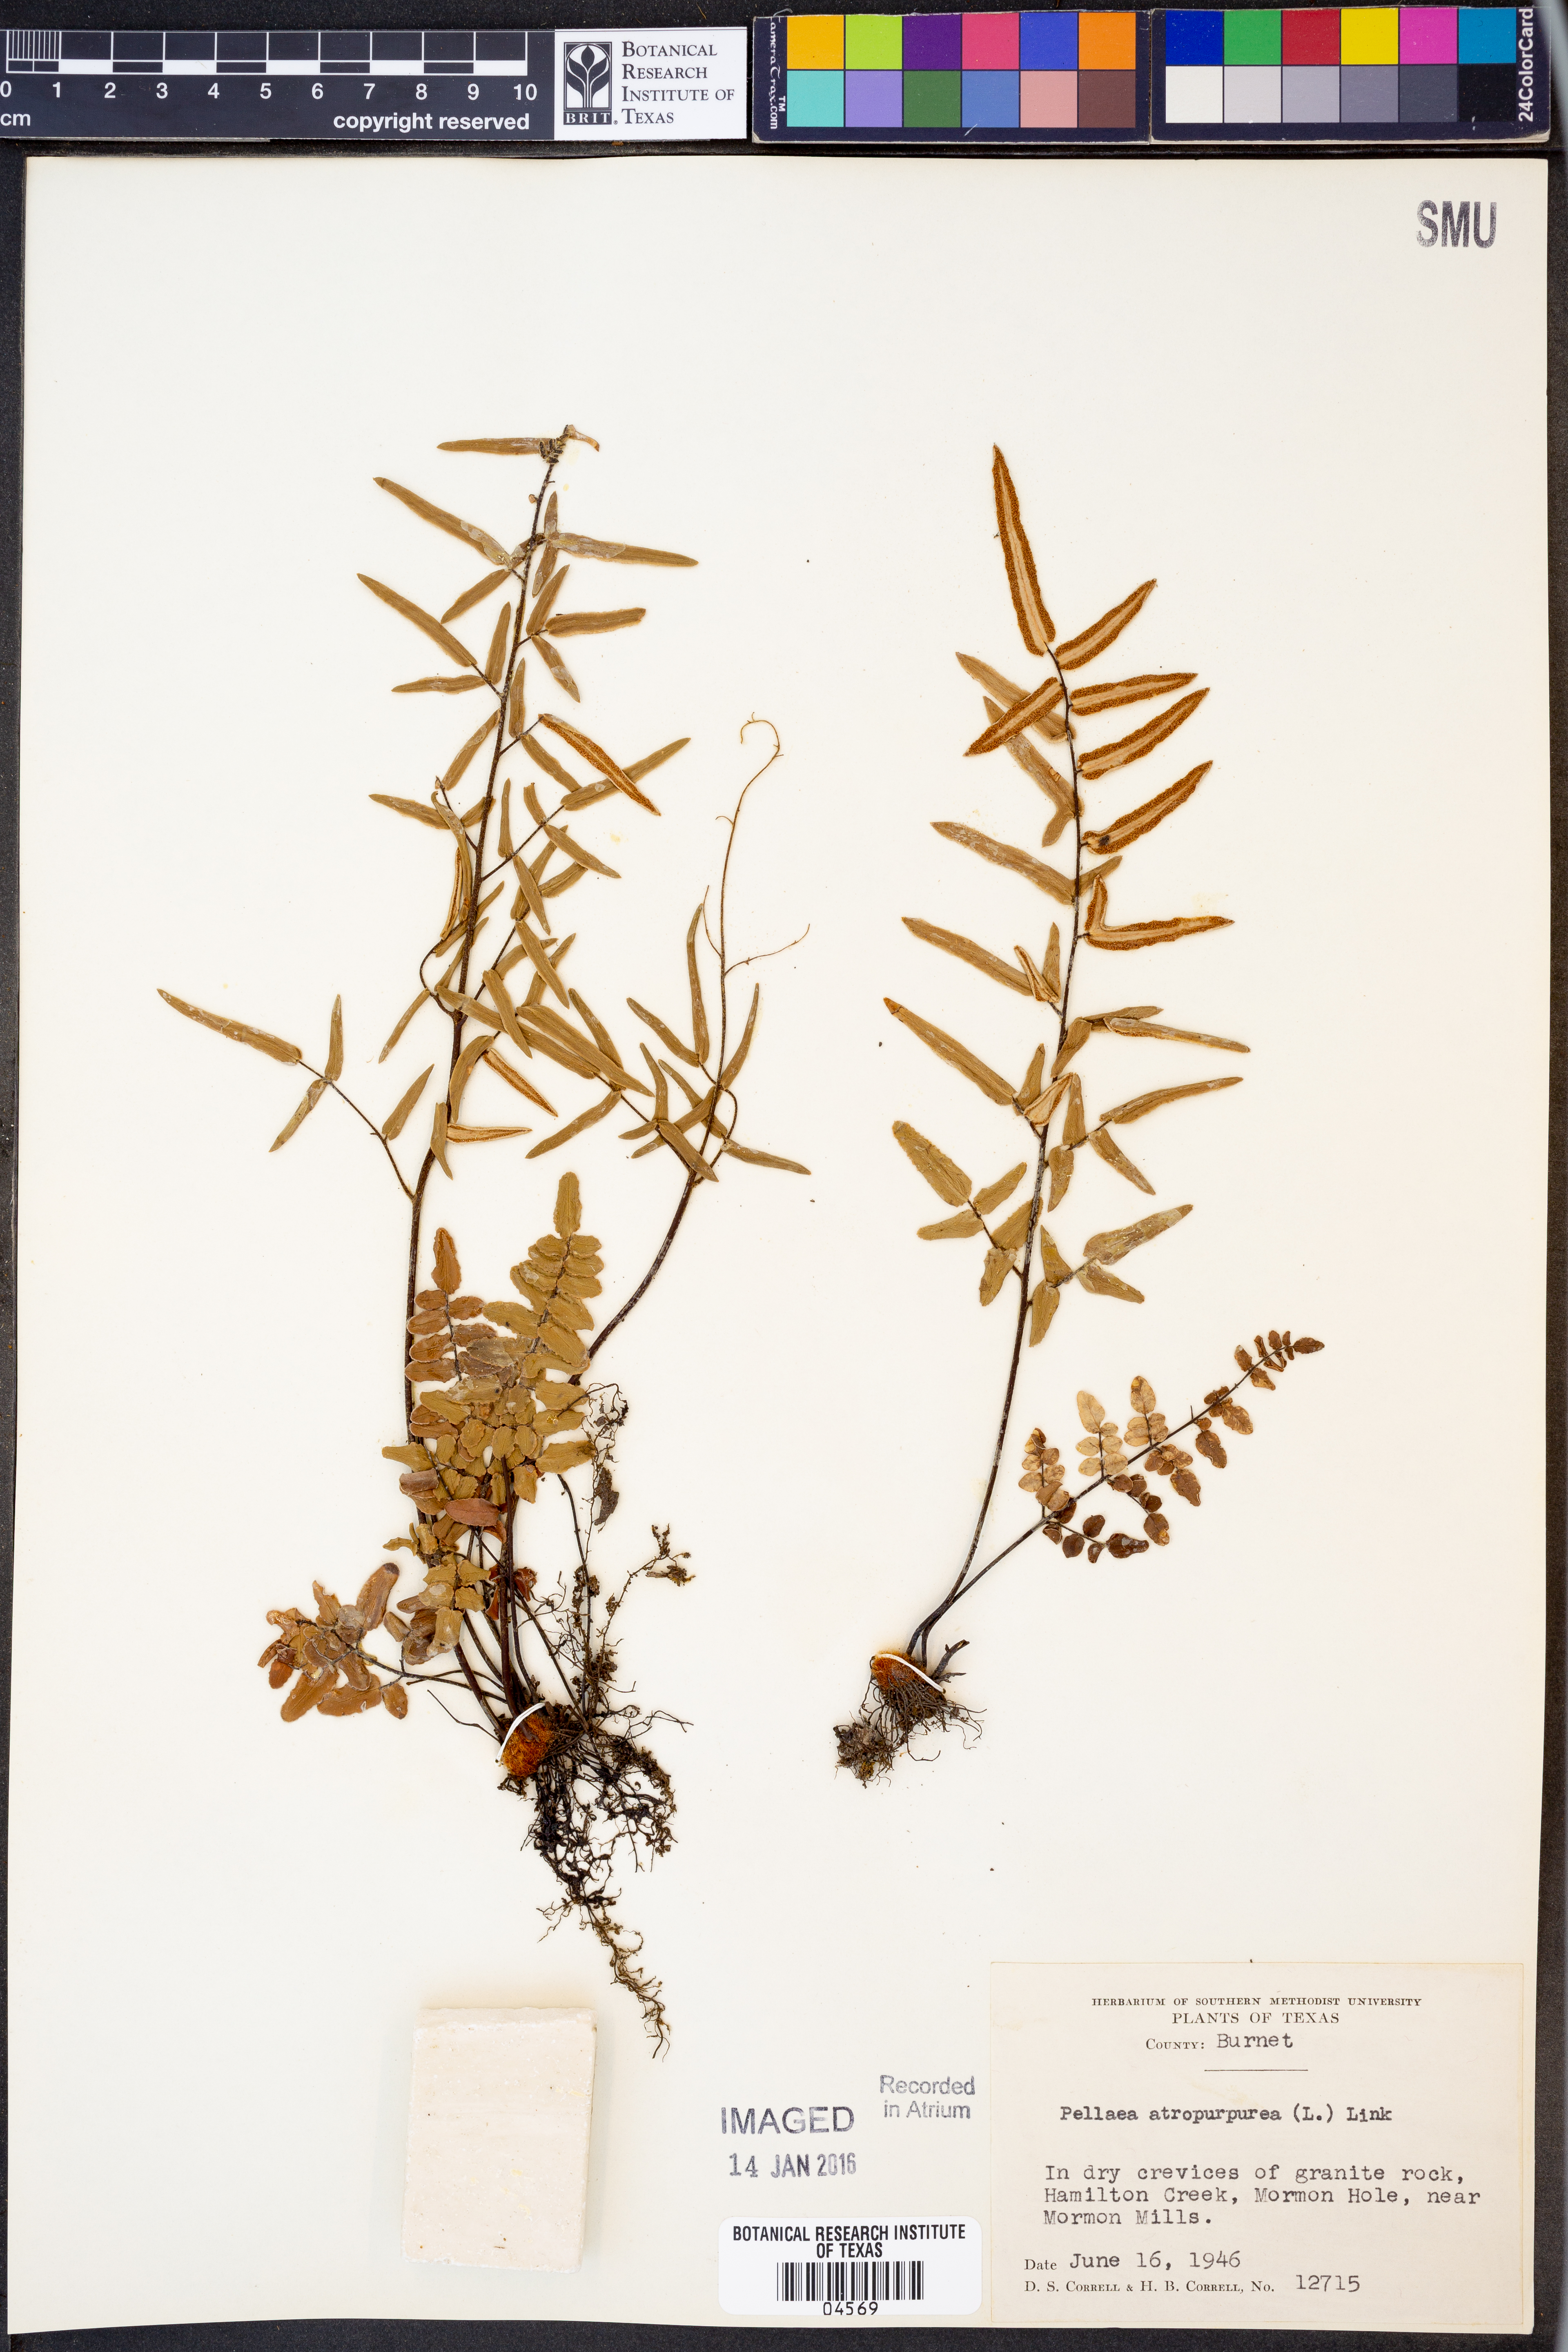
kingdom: Plantae
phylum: Tracheophyta
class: Polypodiopsida
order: Polypodiales
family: Pteridaceae
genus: Pellaea
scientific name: Pellaea atropurpurea
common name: Hairy cliffbrake
